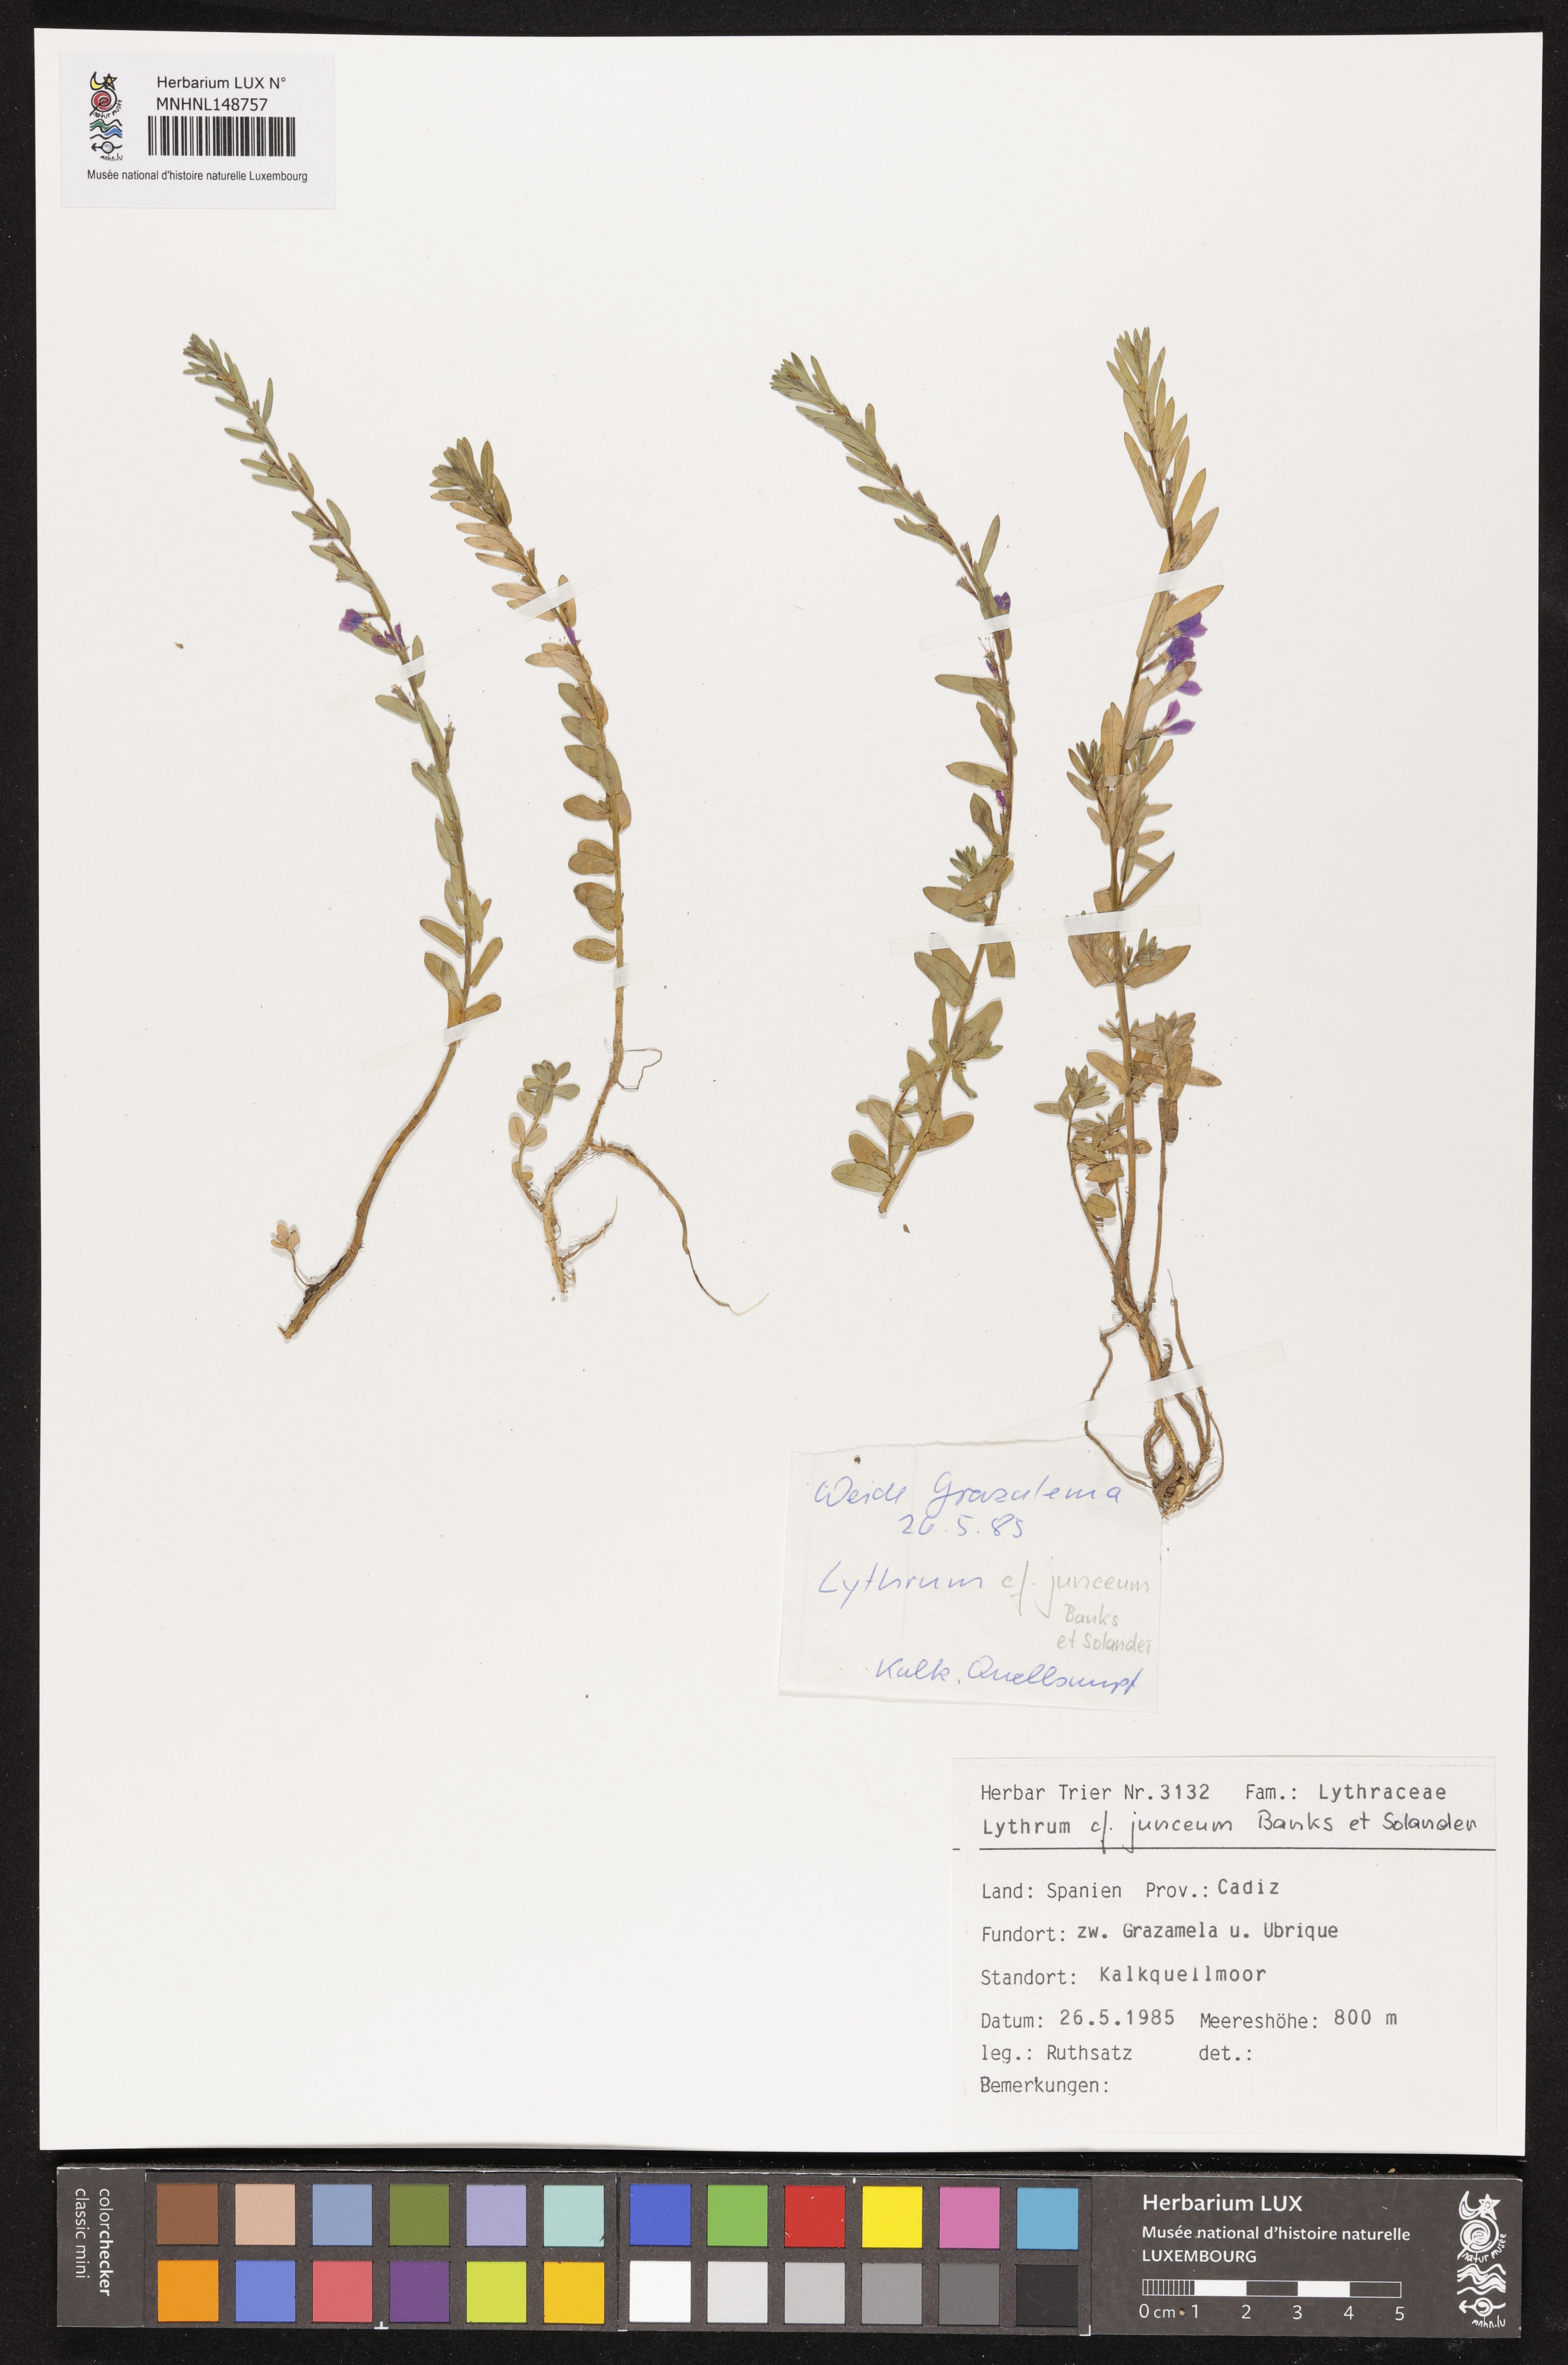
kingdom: Plantae
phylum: Tracheophyta
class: Magnoliopsida
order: Myrtales
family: Lythraceae
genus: Lythrum
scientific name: Lythrum junceum
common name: False grass-poly
